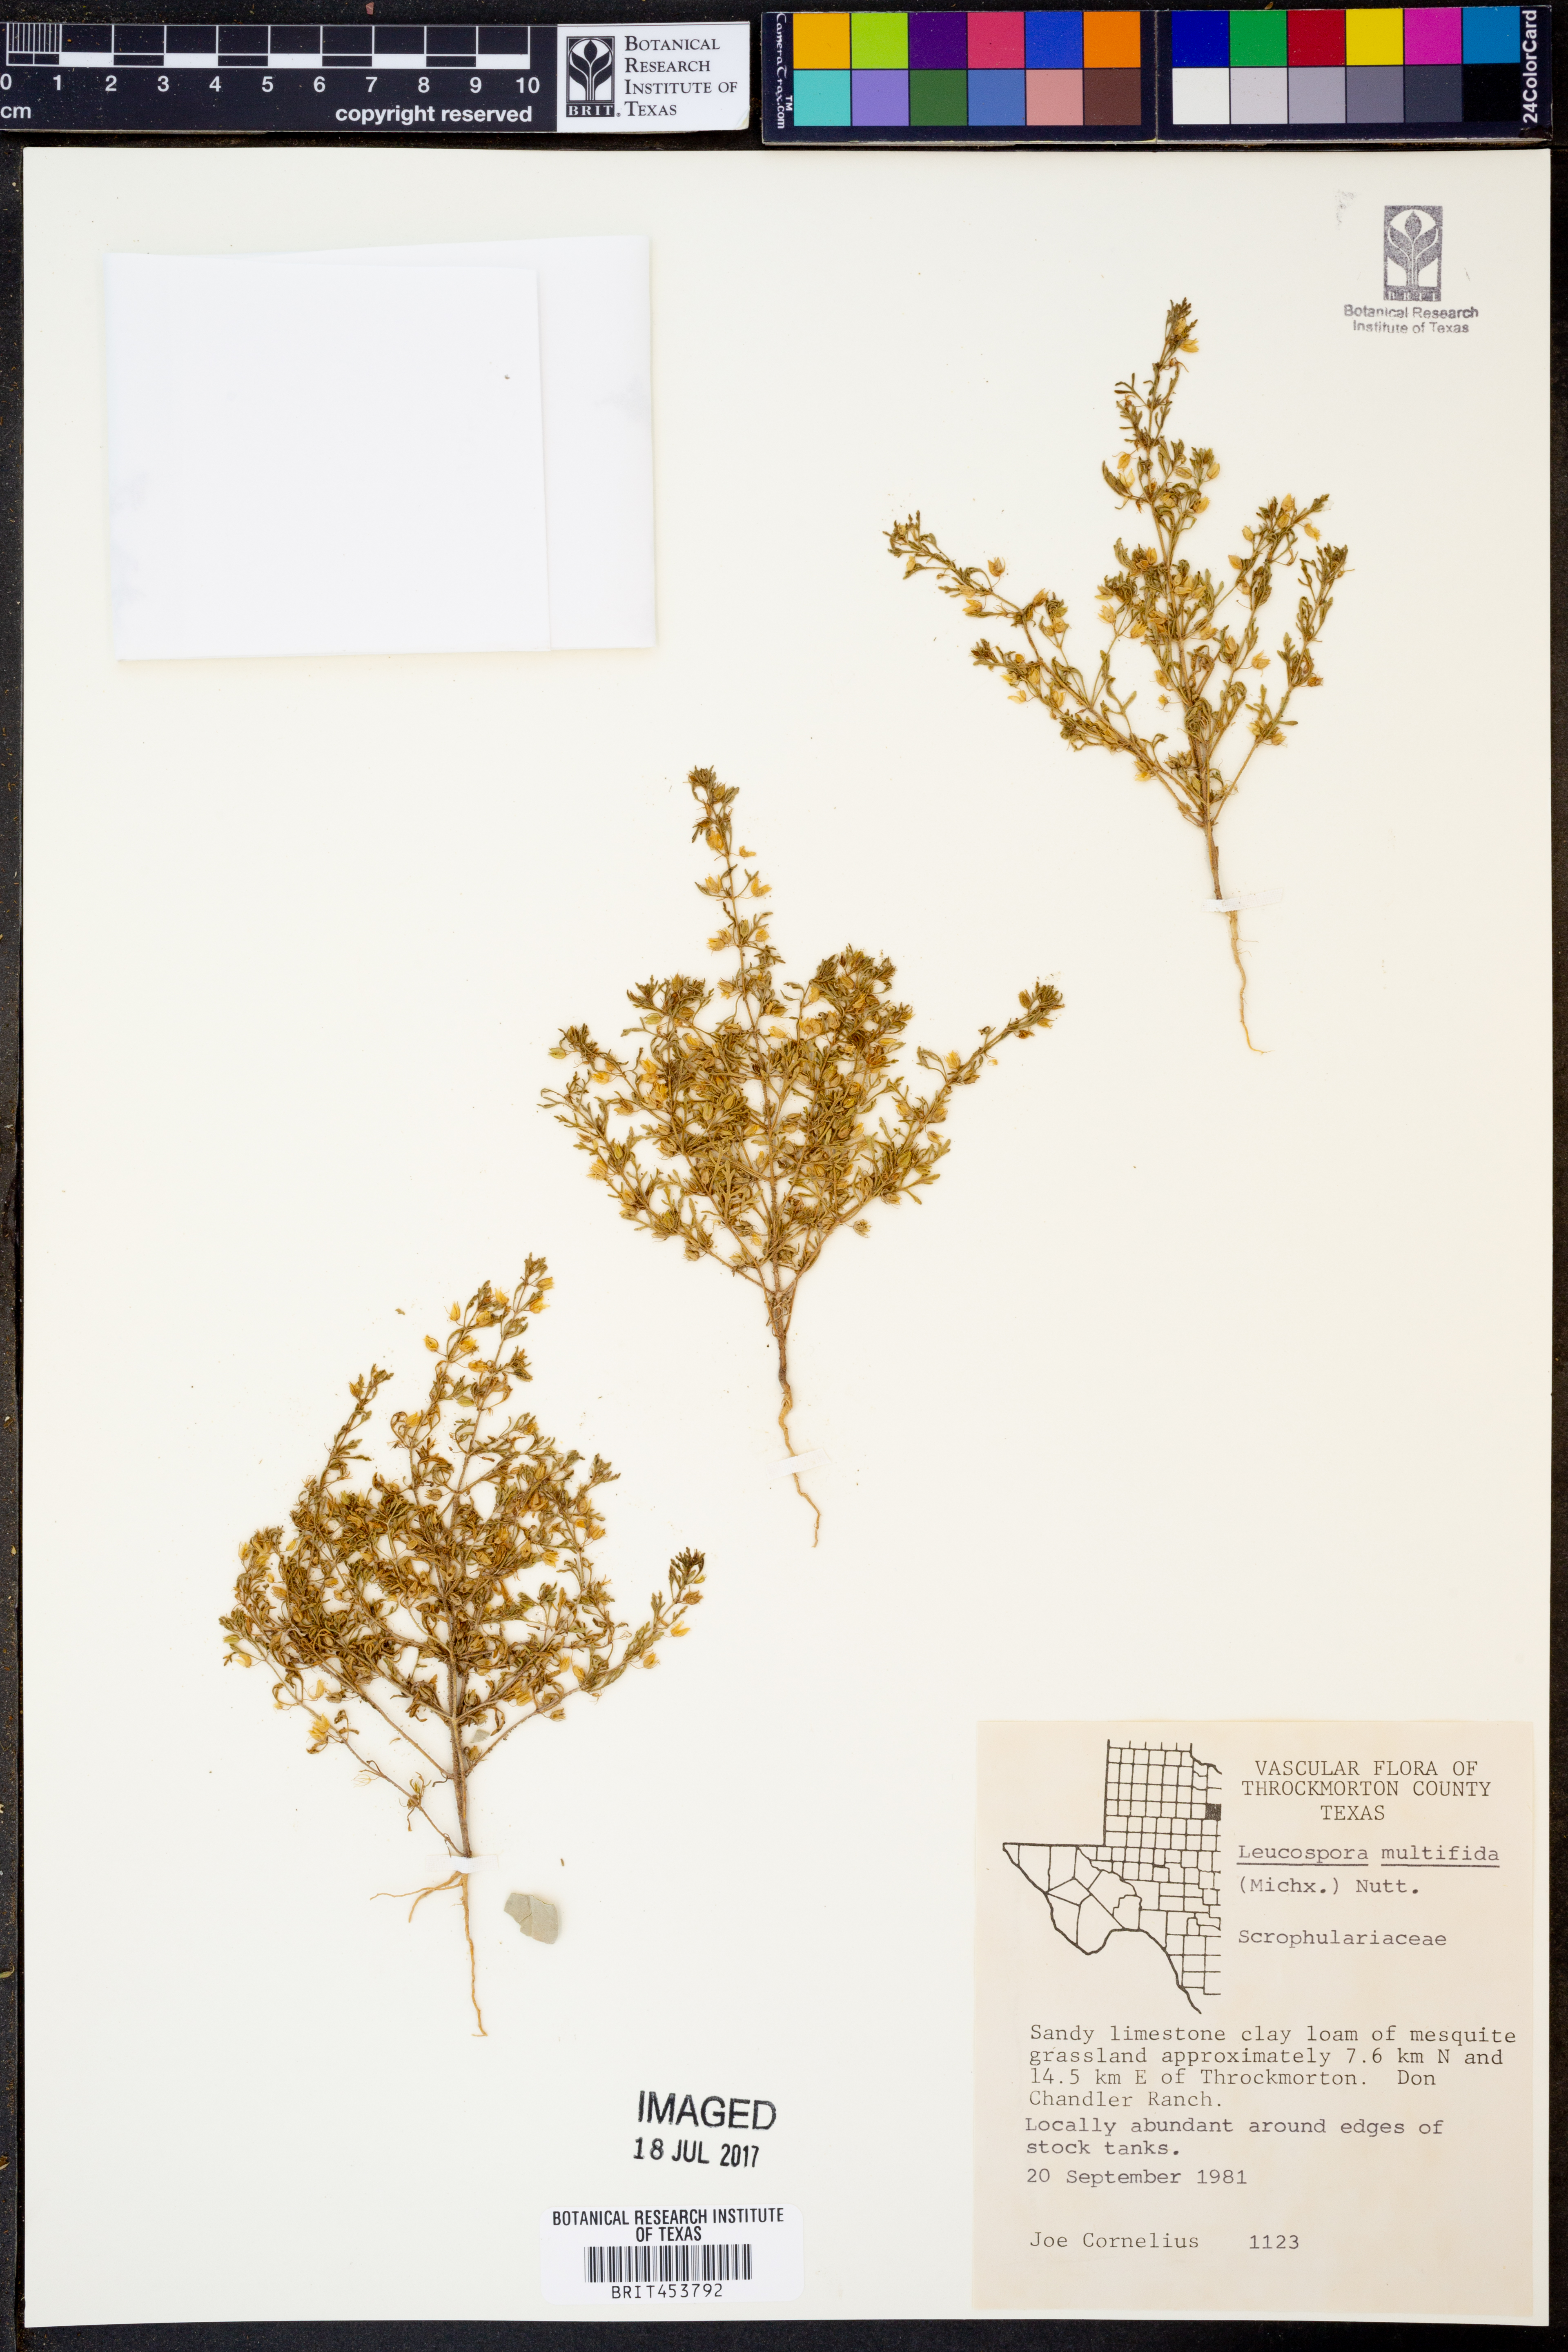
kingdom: Plantae
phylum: Tracheophyta
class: Magnoliopsida
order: Lamiales
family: Plantaginaceae
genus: Leucospora
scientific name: Leucospora multifida
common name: Narrow-leaf paleseed
